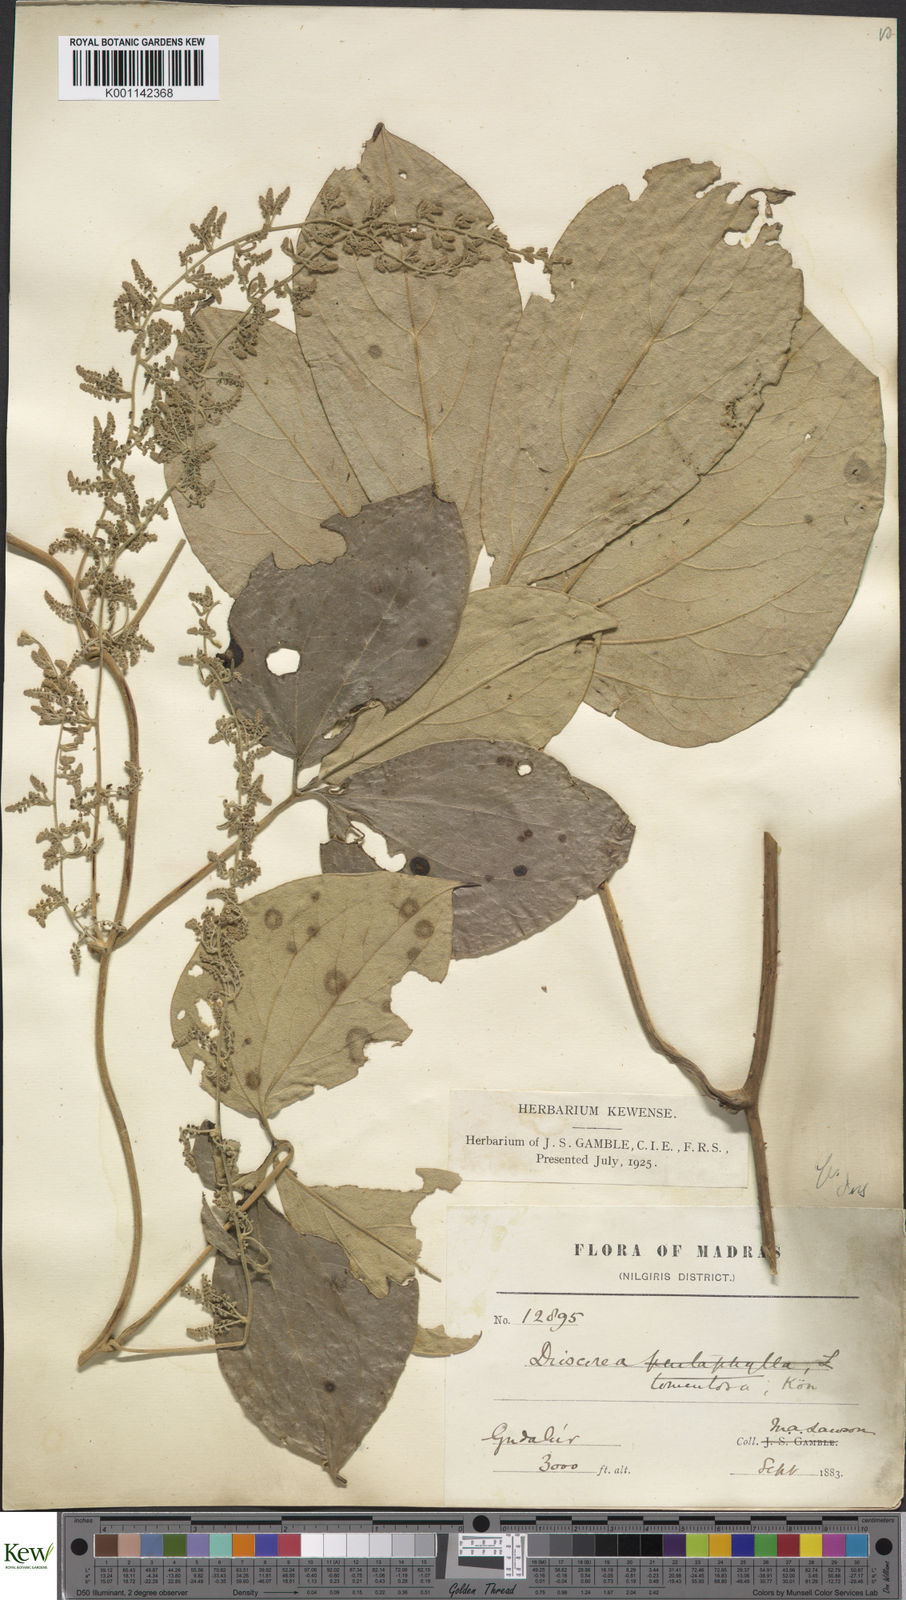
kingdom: Plantae
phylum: Tracheophyta
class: Liliopsida
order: Dioscoreales
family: Dioscoreaceae
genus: Dioscorea
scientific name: Dioscorea
